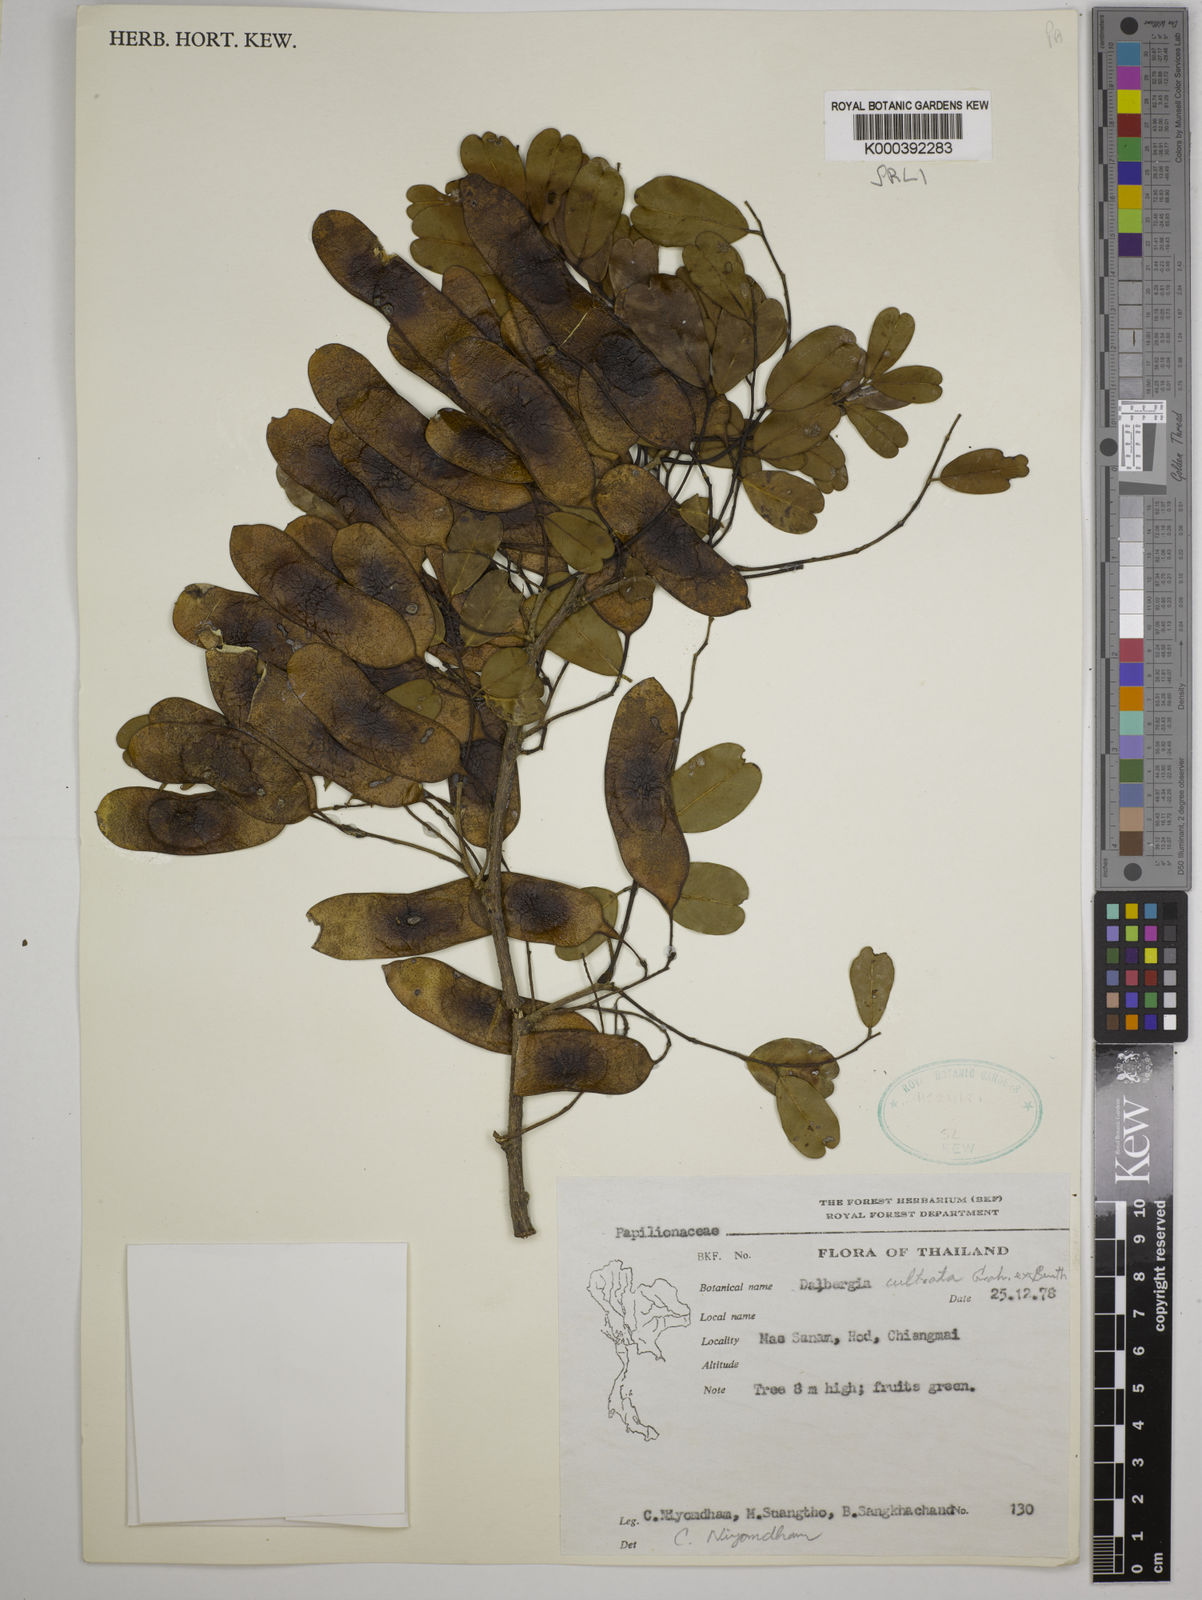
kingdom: Plantae
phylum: Tracheophyta
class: Magnoliopsida
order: Fabales
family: Fabaceae
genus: Dalbergia
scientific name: Dalbergia
